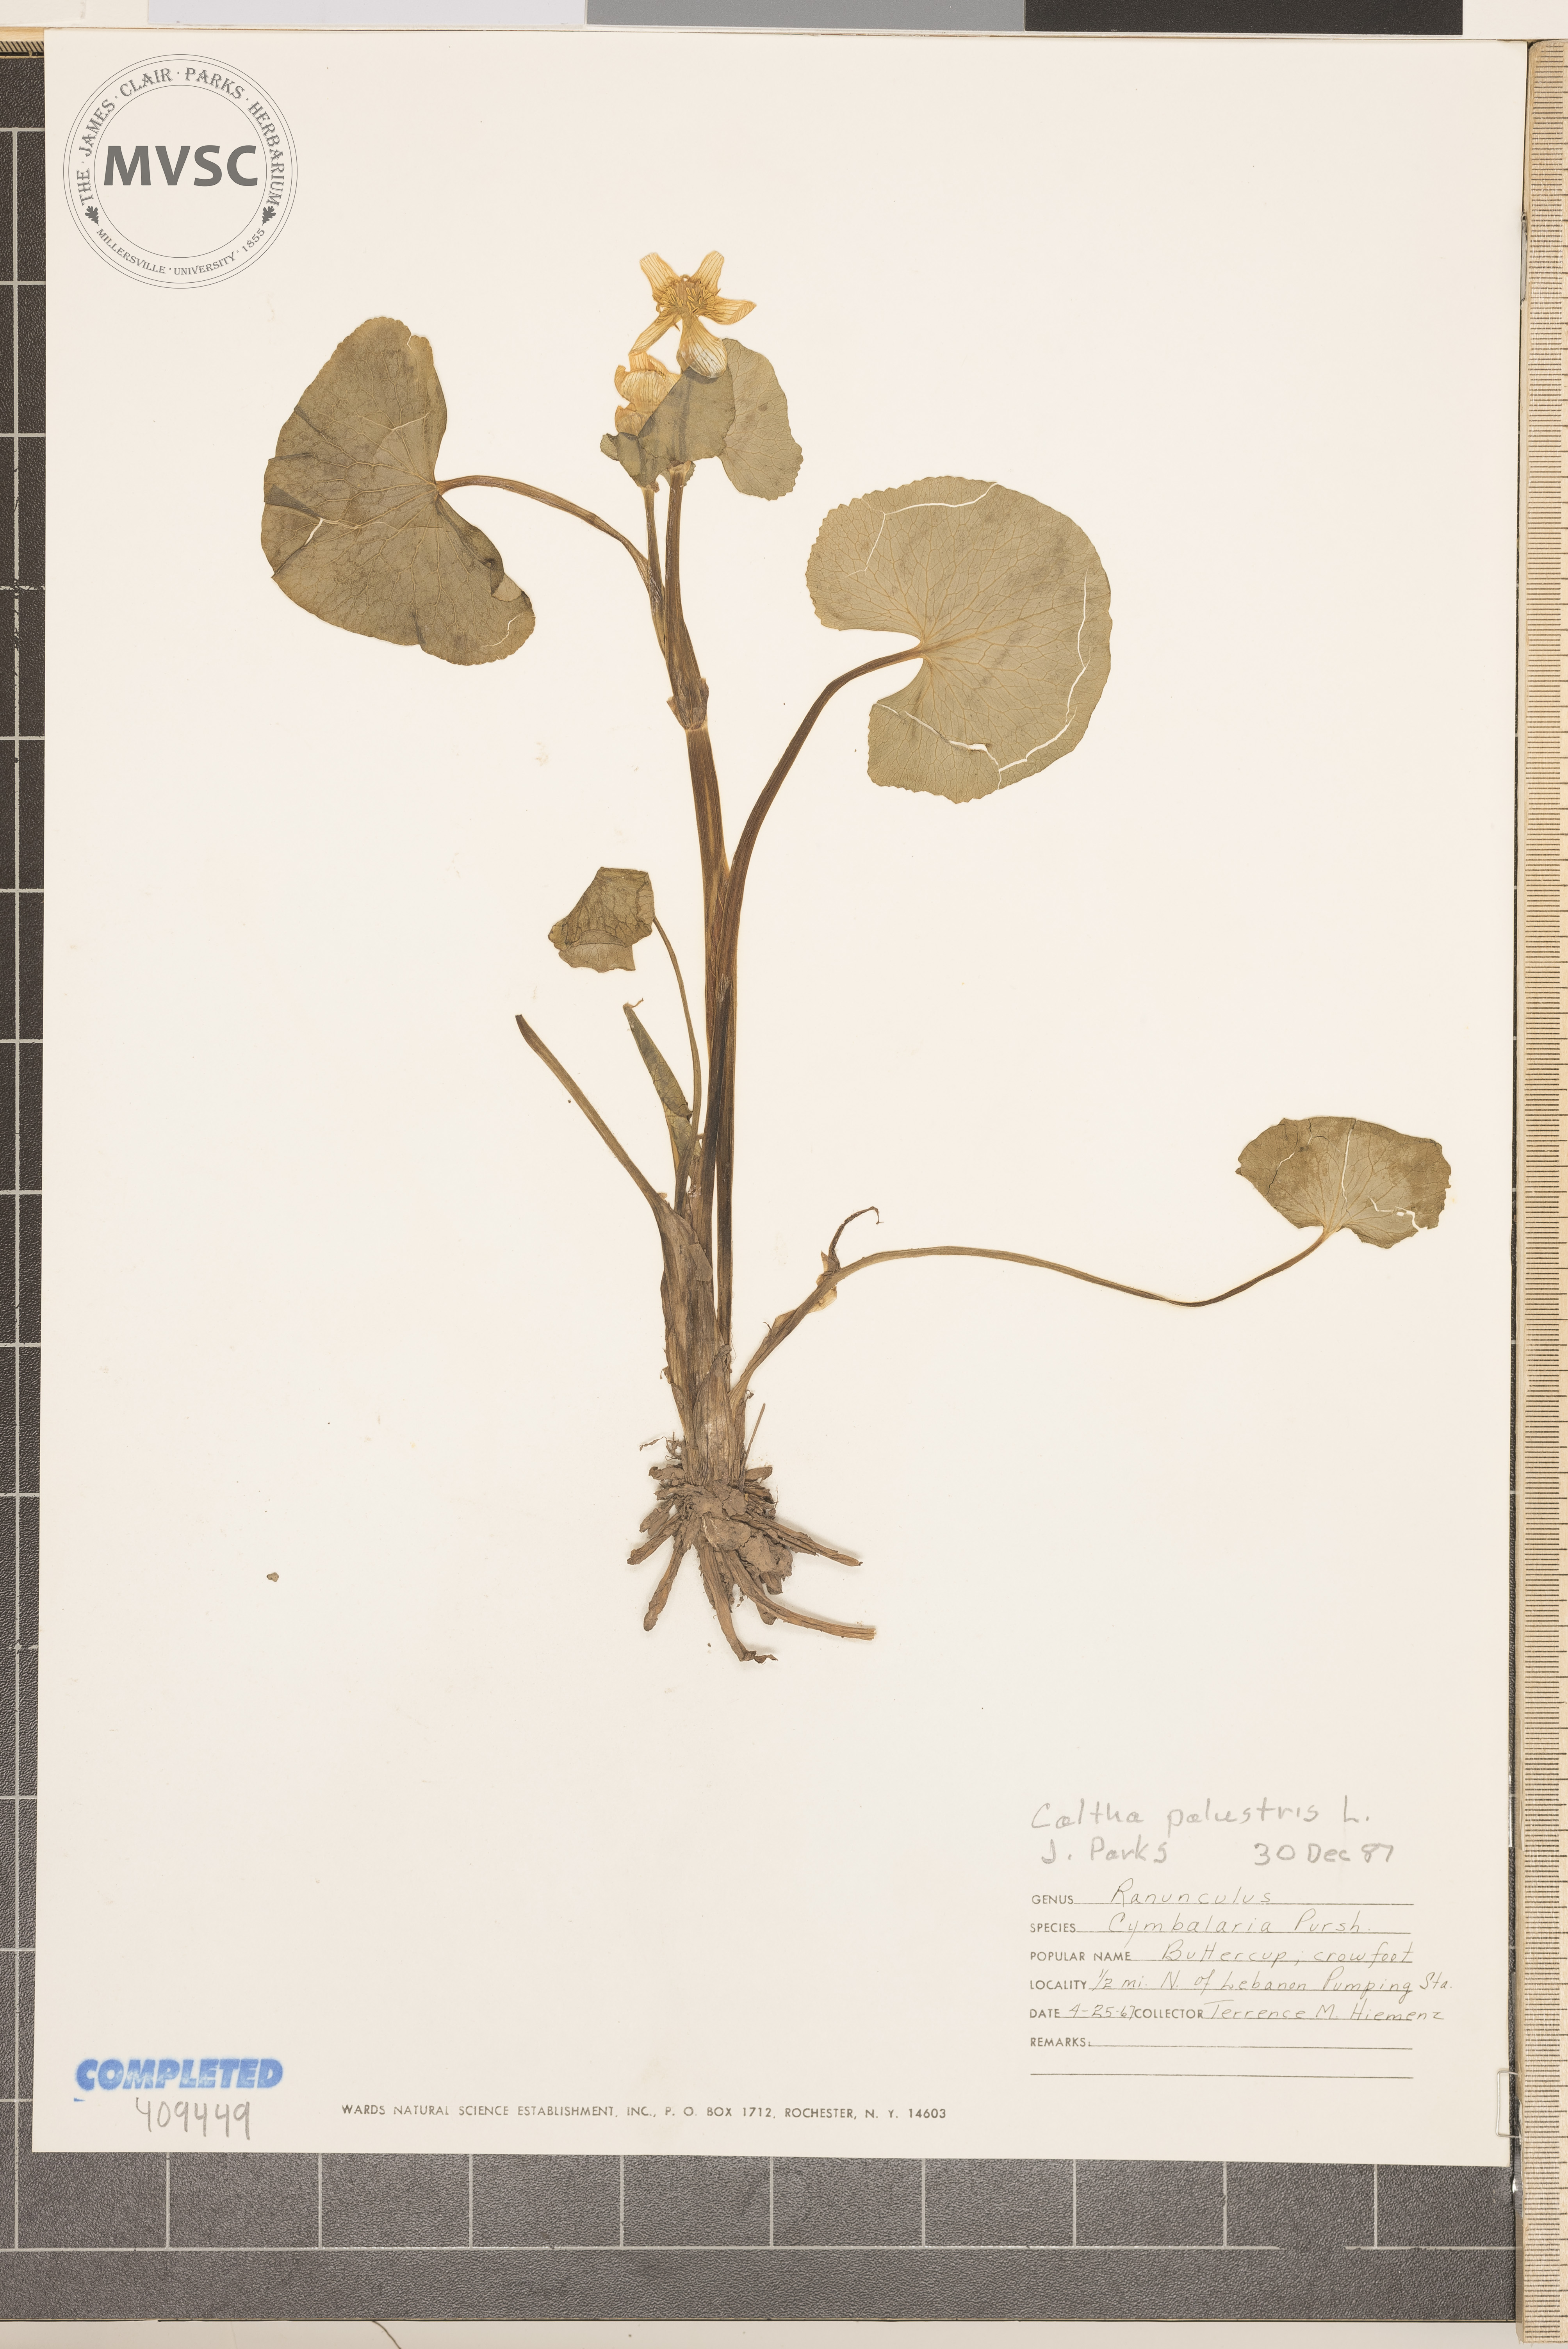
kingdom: Plantae
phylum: Tracheophyta
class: Magnoliopsida
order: Ranunculales
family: Ranunculaceae
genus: Caltha
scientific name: Caltha palustris
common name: Marsh marigold
